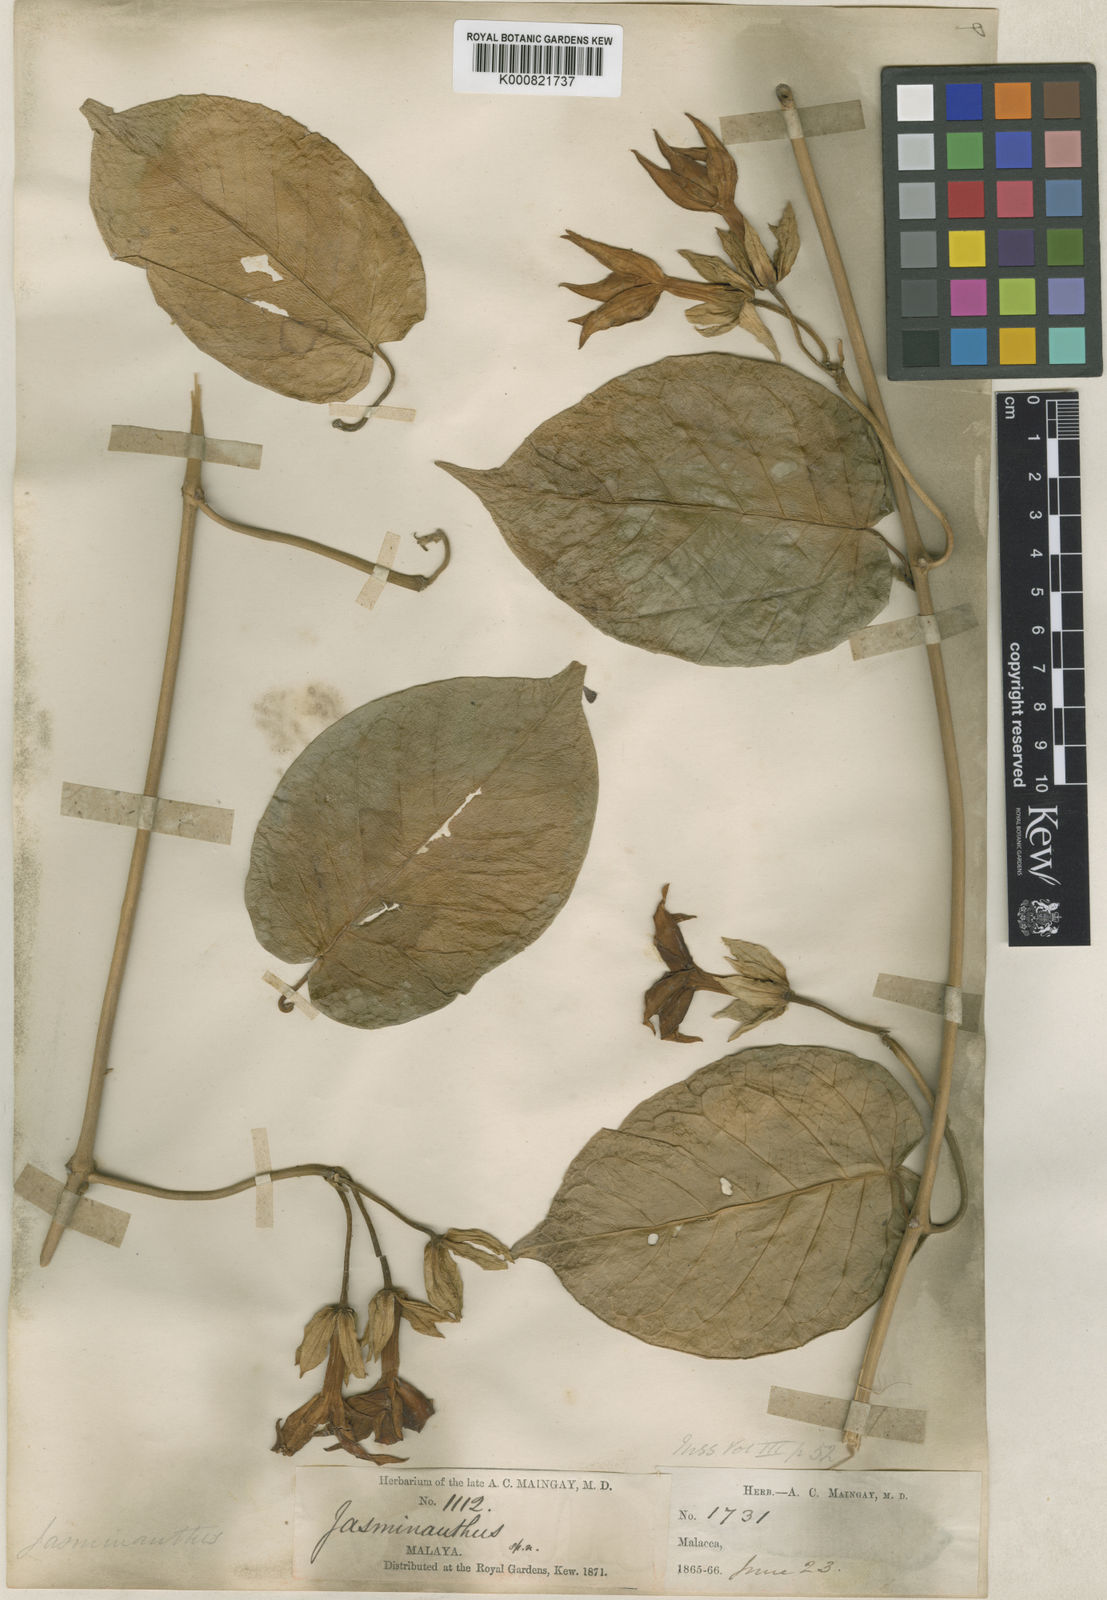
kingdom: Plantae
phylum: Tracheophyta
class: Magnoliopsida
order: Gentianales
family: Apocynaceae
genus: Jasminanthes
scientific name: Jasminanthes maingayi
